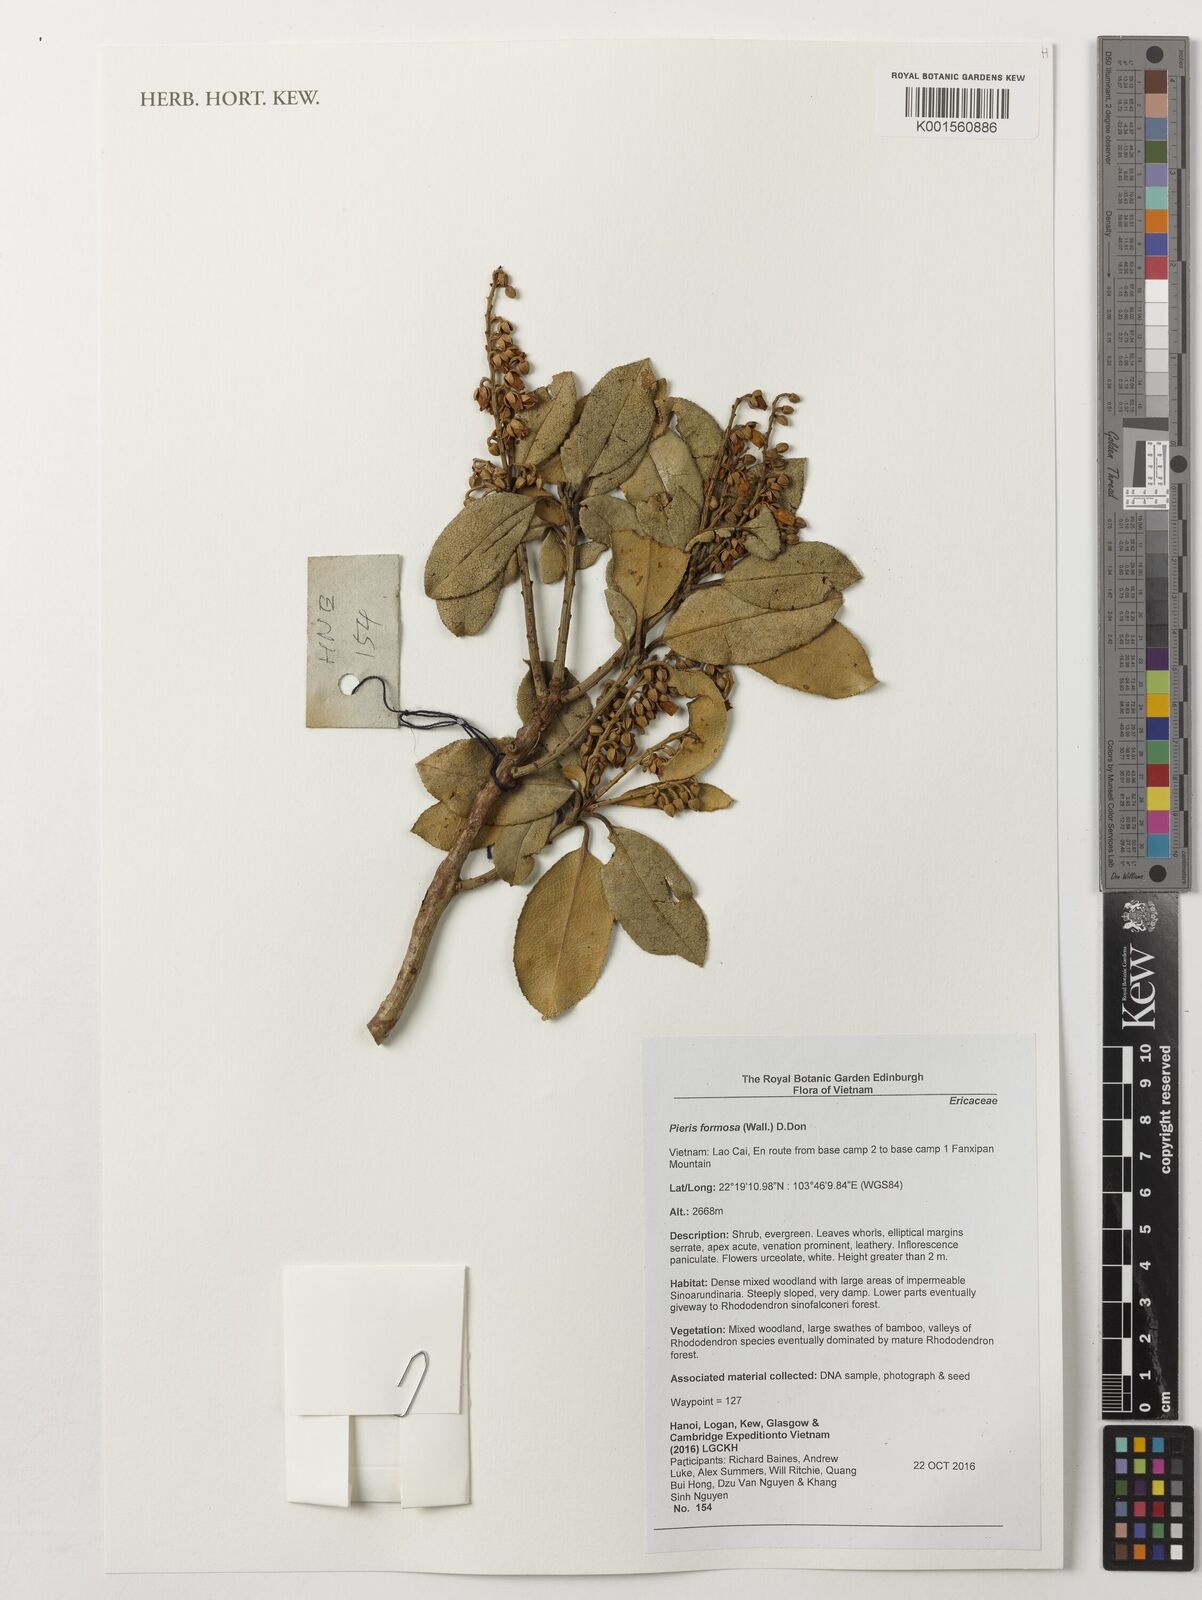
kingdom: Plantae
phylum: Tracheophyta
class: Magnoliopsida
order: Ericales
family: Ericaceae
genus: Pieris
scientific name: Pieris formosa
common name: Formosan pieris
